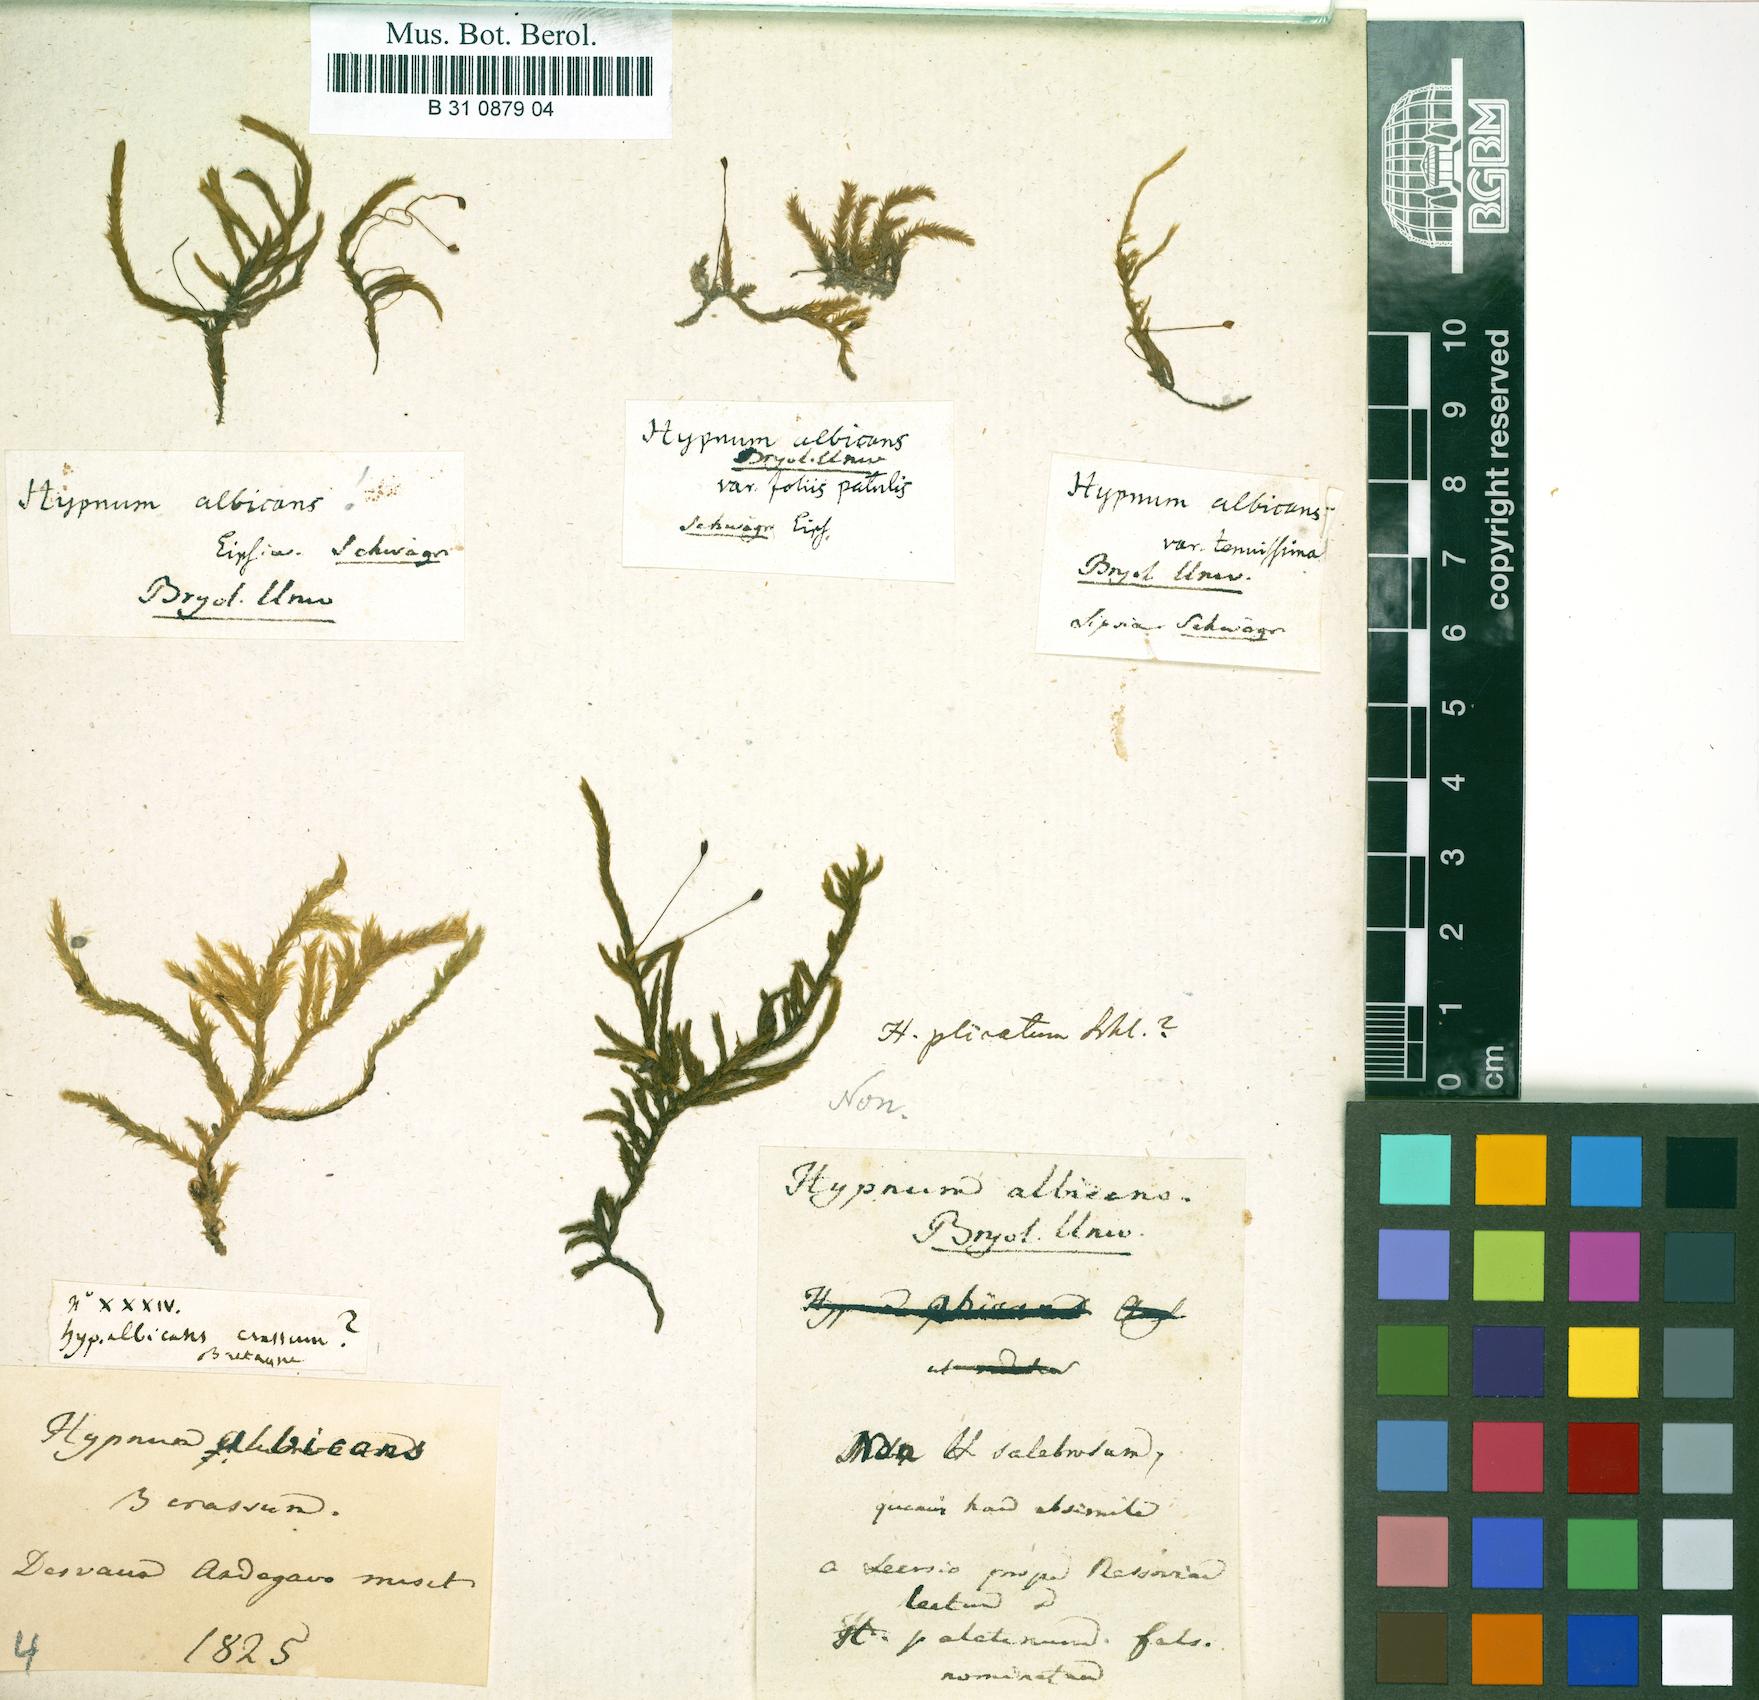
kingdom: Plantae
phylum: Bryophyta
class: Bryopsida
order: Hypnales
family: Brachytheciaceae
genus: Brachythecium
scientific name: Brachythecium albicans
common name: Whitish ragged moss
